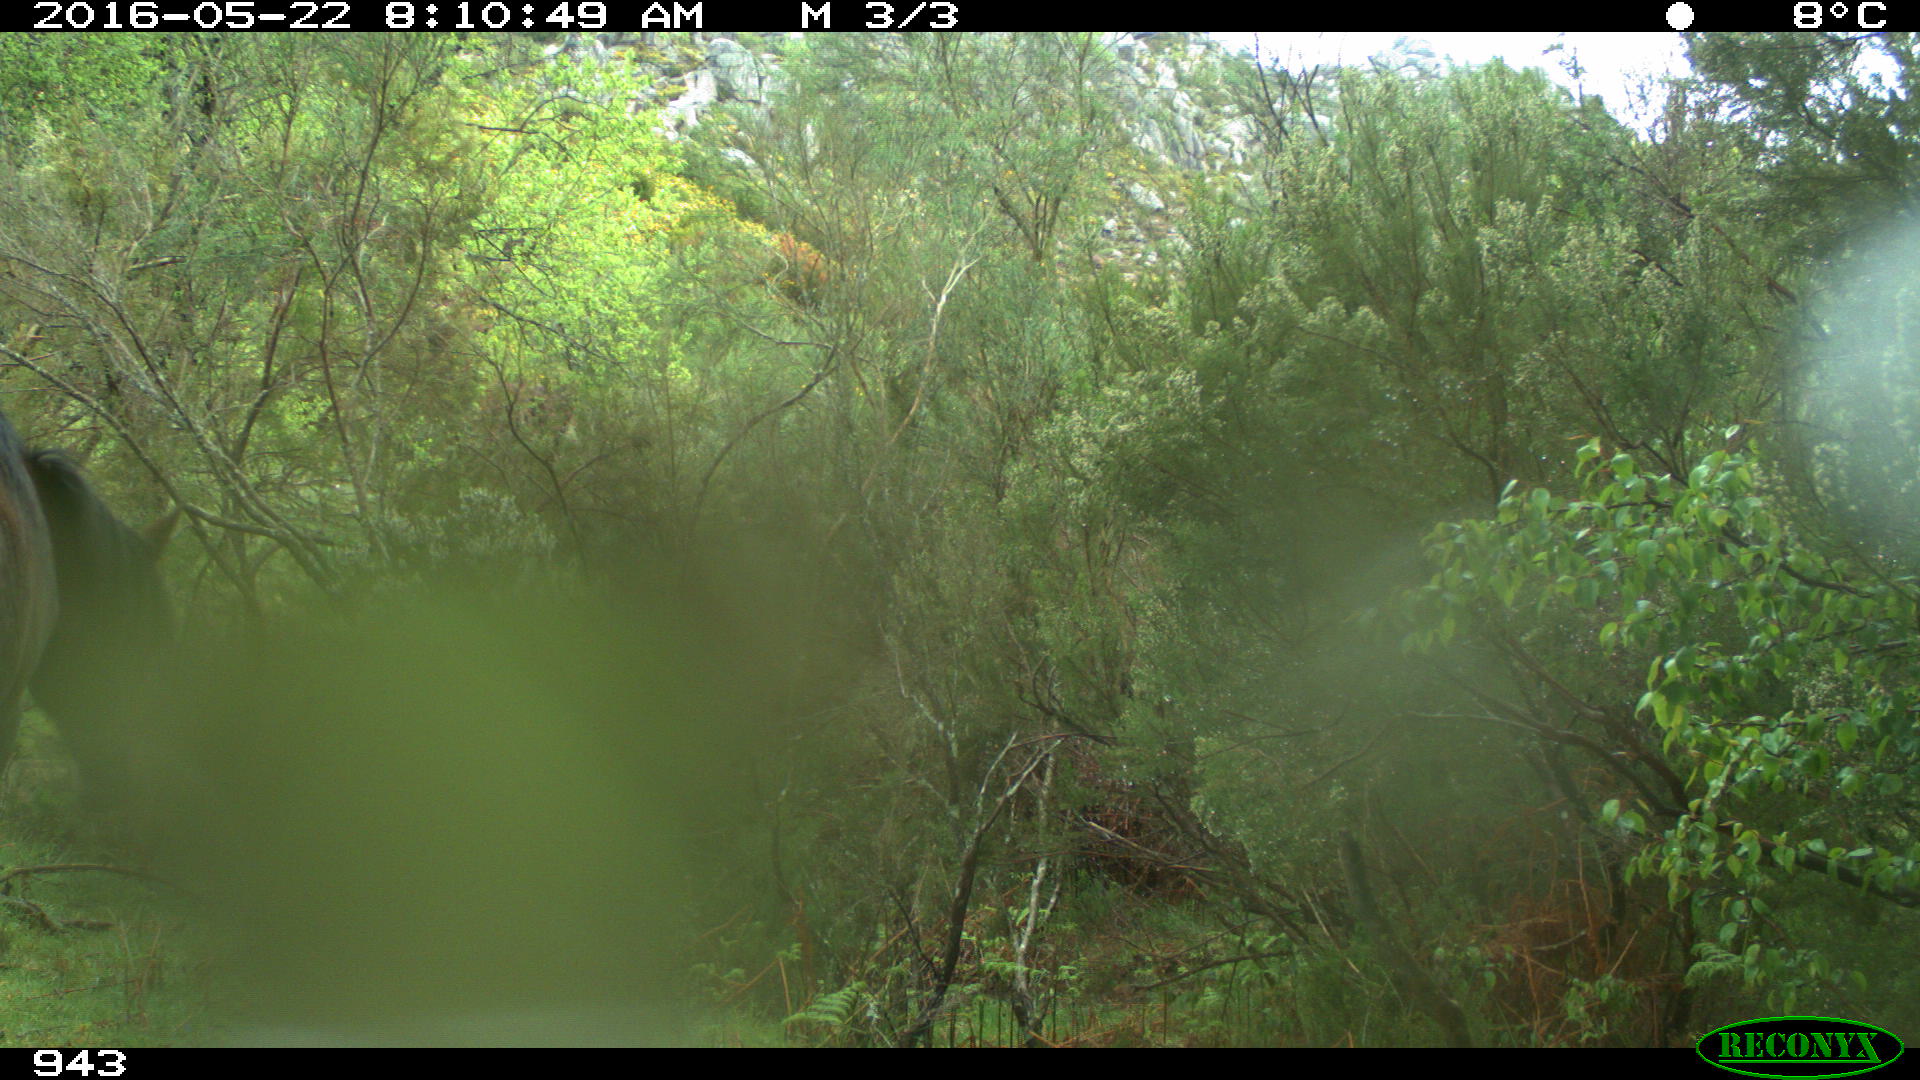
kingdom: Animalia
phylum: Chordata
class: Mammalia
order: Perissodactyla
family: Equidae
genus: Equus
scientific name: Equus caballus
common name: Horse
